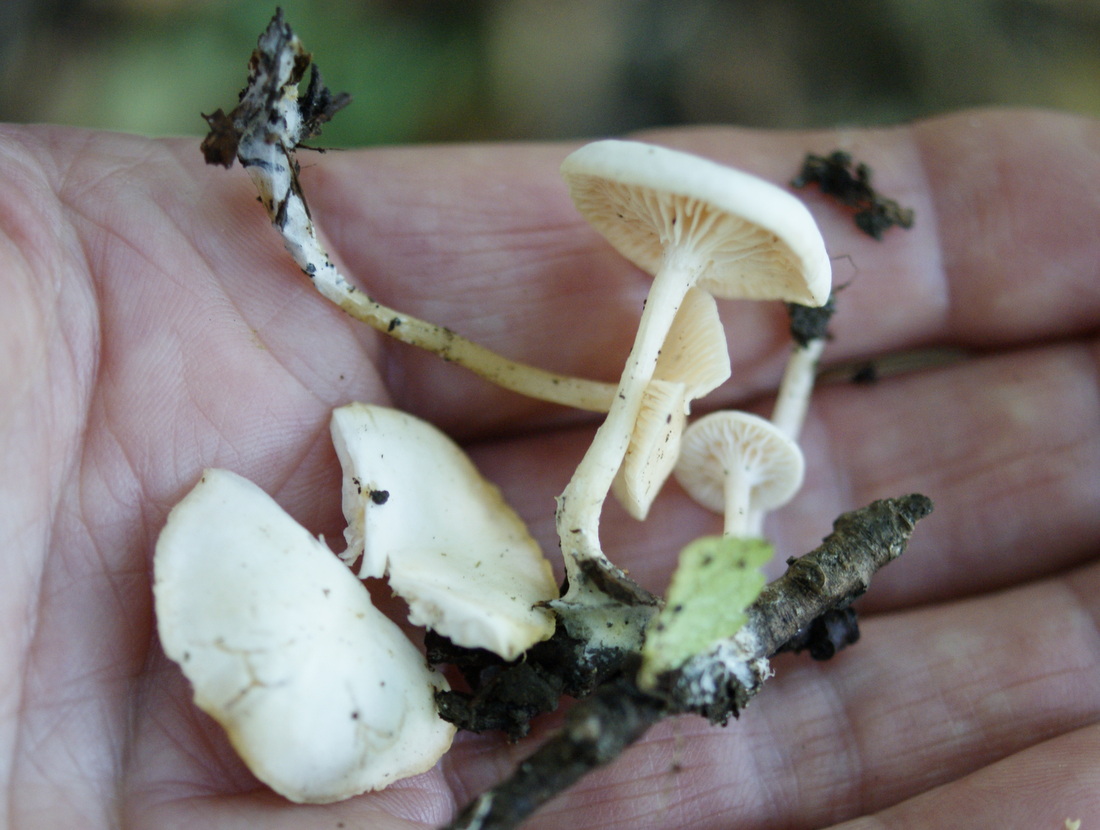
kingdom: Fungi
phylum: Basidiomycota
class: Agaricomycetes
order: Agaricales
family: Tricholomataceae
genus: Leucocybe
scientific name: Leucocybe candicans
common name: kridt-tragthat
